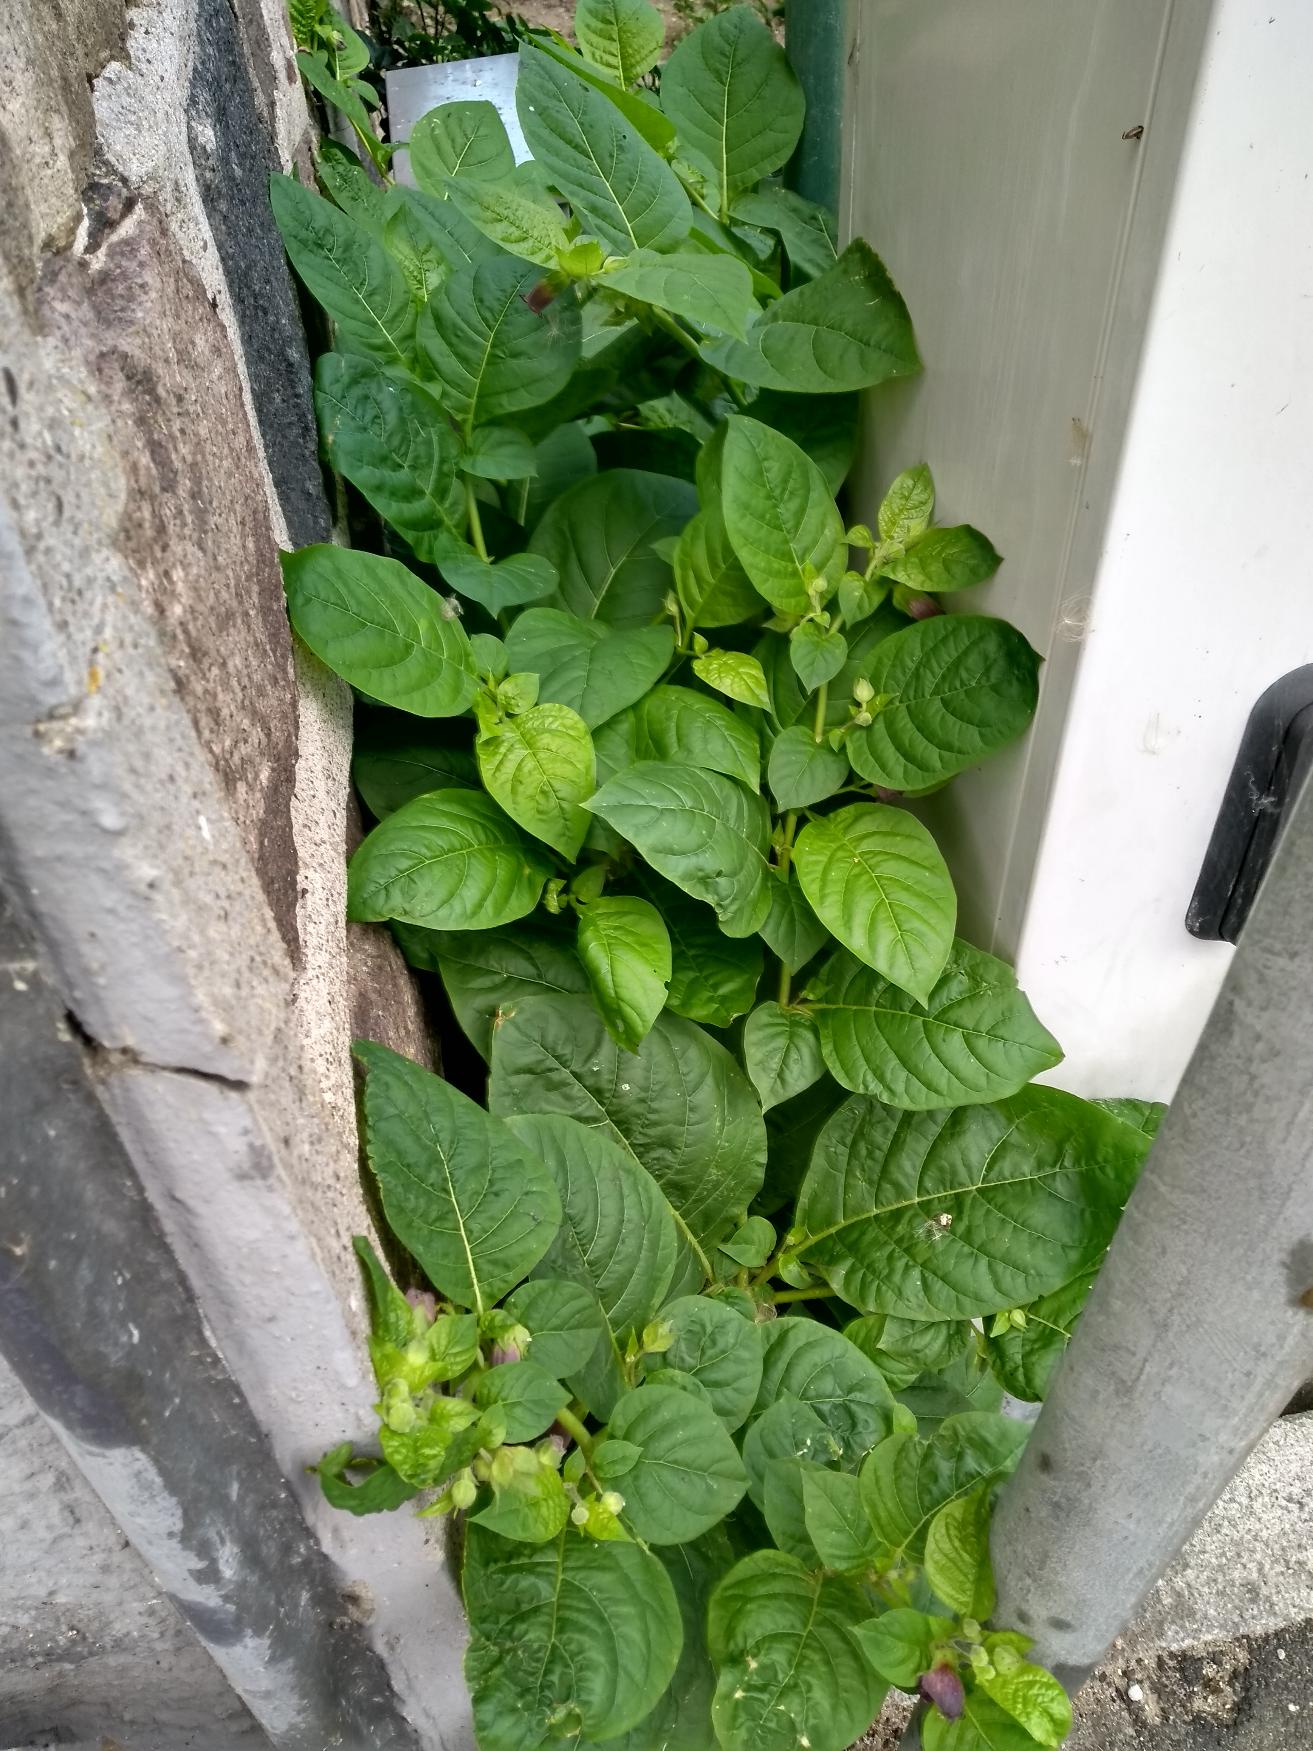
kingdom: Plantae
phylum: Tracheophyta
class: Magnoliopsida
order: Solanales
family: Solanaceae
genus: Atropa
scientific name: Atropa belladonna
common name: Galnebær
